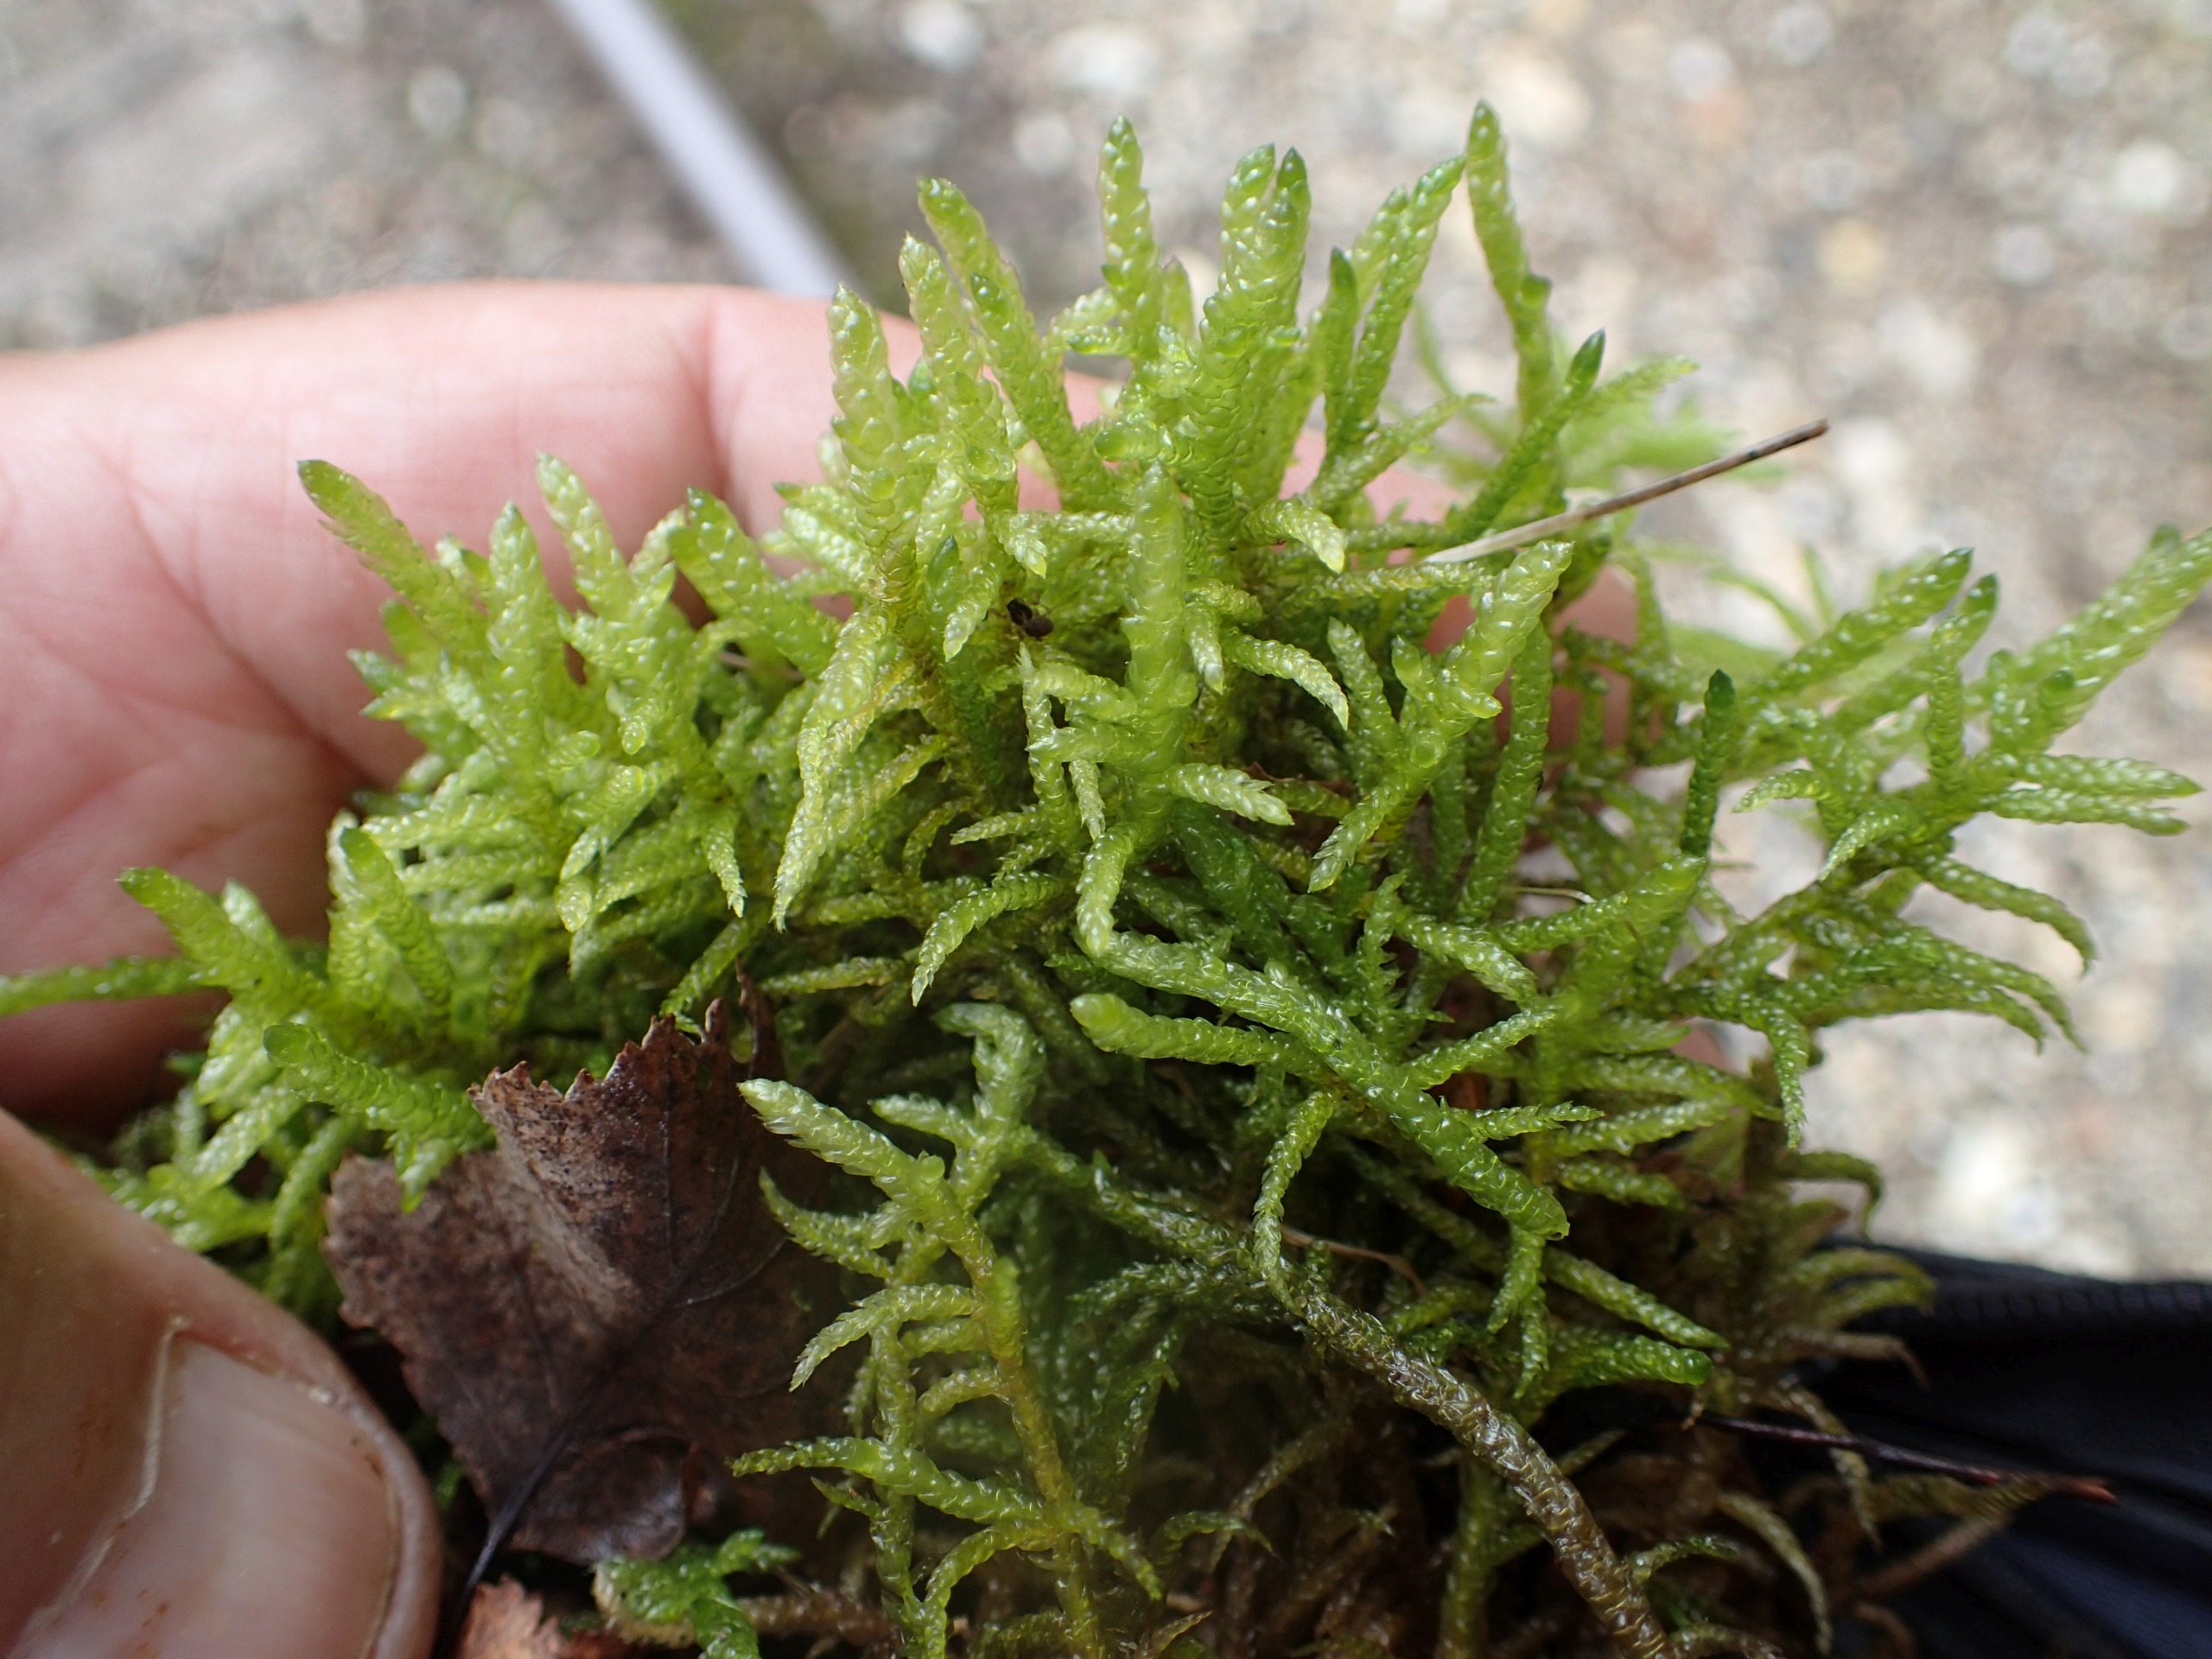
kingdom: Plantae
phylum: Bryophyta
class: Bryopsida
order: Hypnales
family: Brachytheciaceae
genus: Pseudoscleropodium
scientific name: Pseudoscleropodium purum
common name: Hulbladet fedtmos
